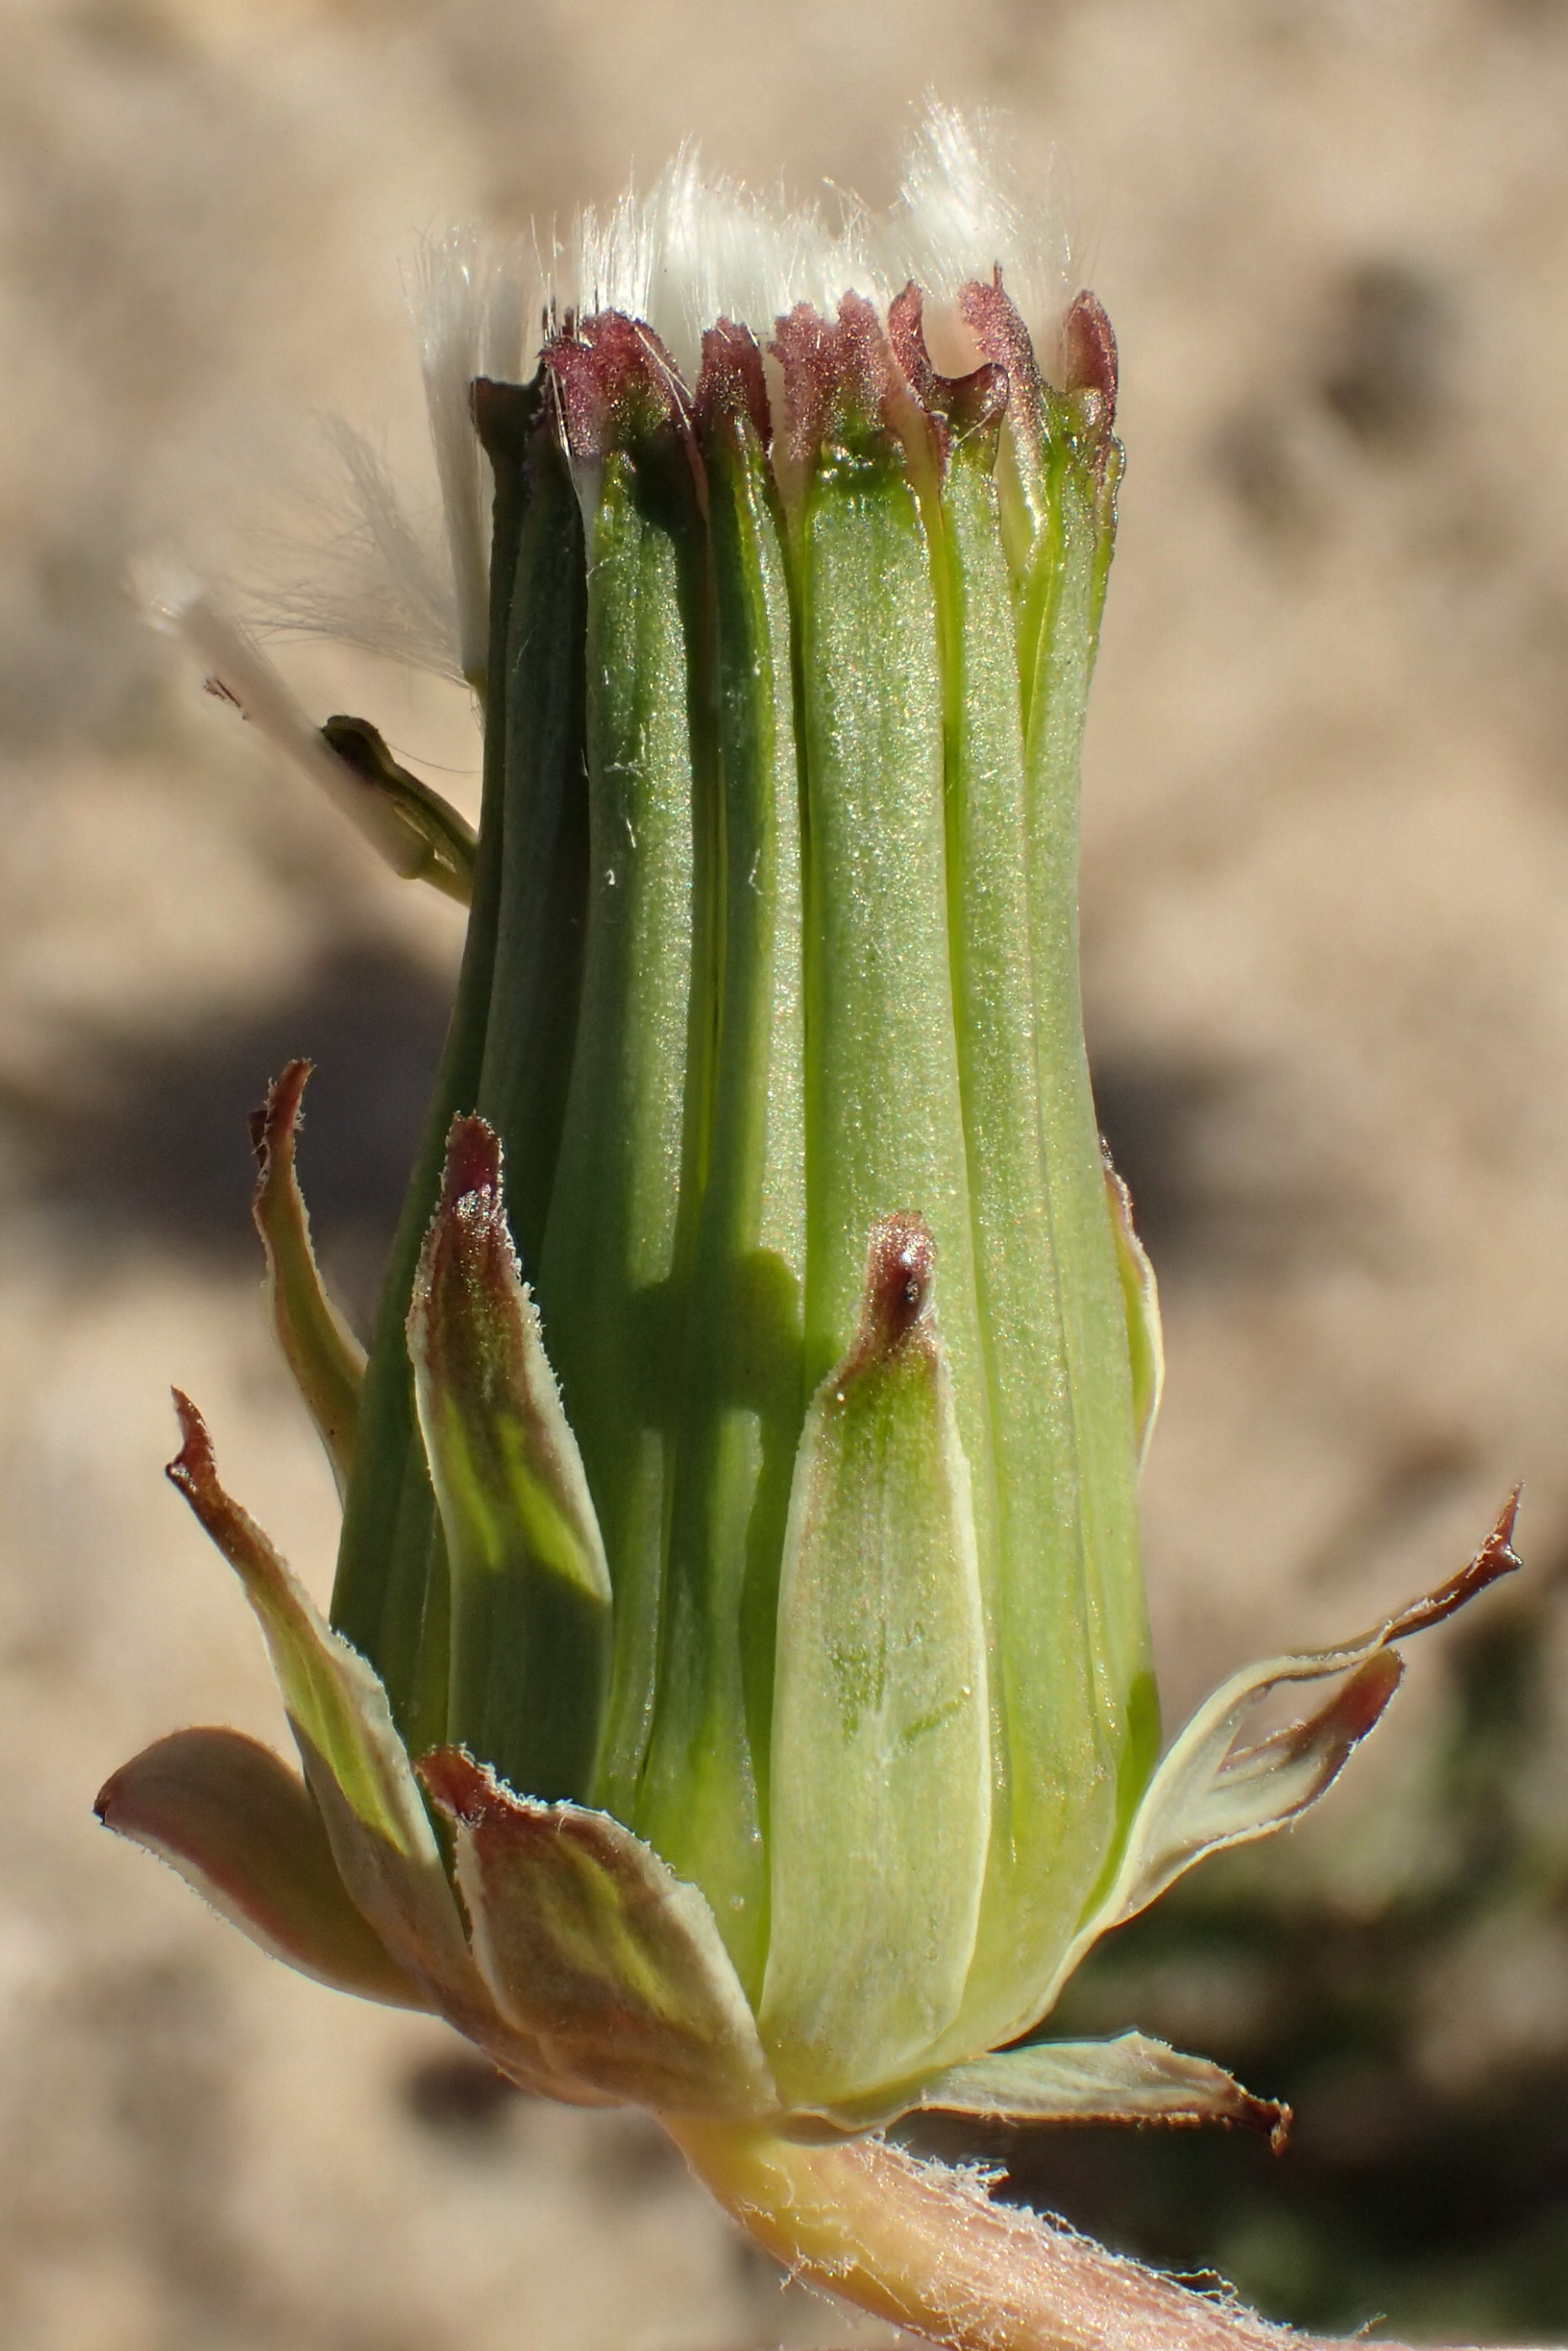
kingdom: Plantae
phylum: Tracheophyta
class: Magnoliopsida
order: Asterales
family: Asteraceae
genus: Taraxacum
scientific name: Taraxacum limbatum
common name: Gråstribet sandmælkebøtte
